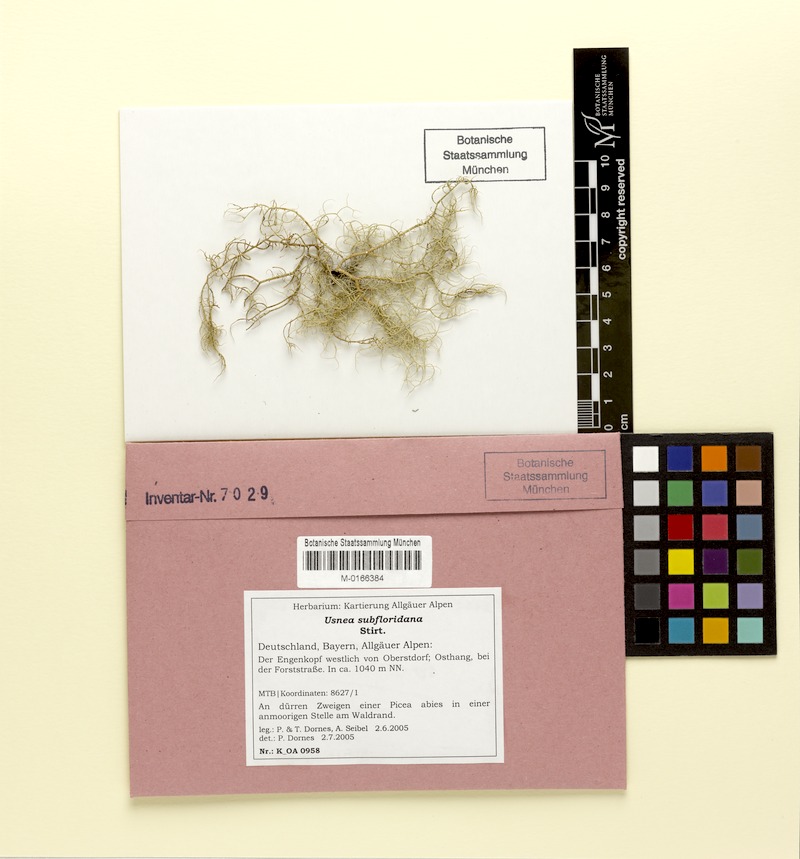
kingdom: Fungi
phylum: Ascomycota
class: Lecanoromycetes
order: Lecanorales
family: Parmeliaceae
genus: Usnea
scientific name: Usnea subfloridana
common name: Boreal beard lichen
